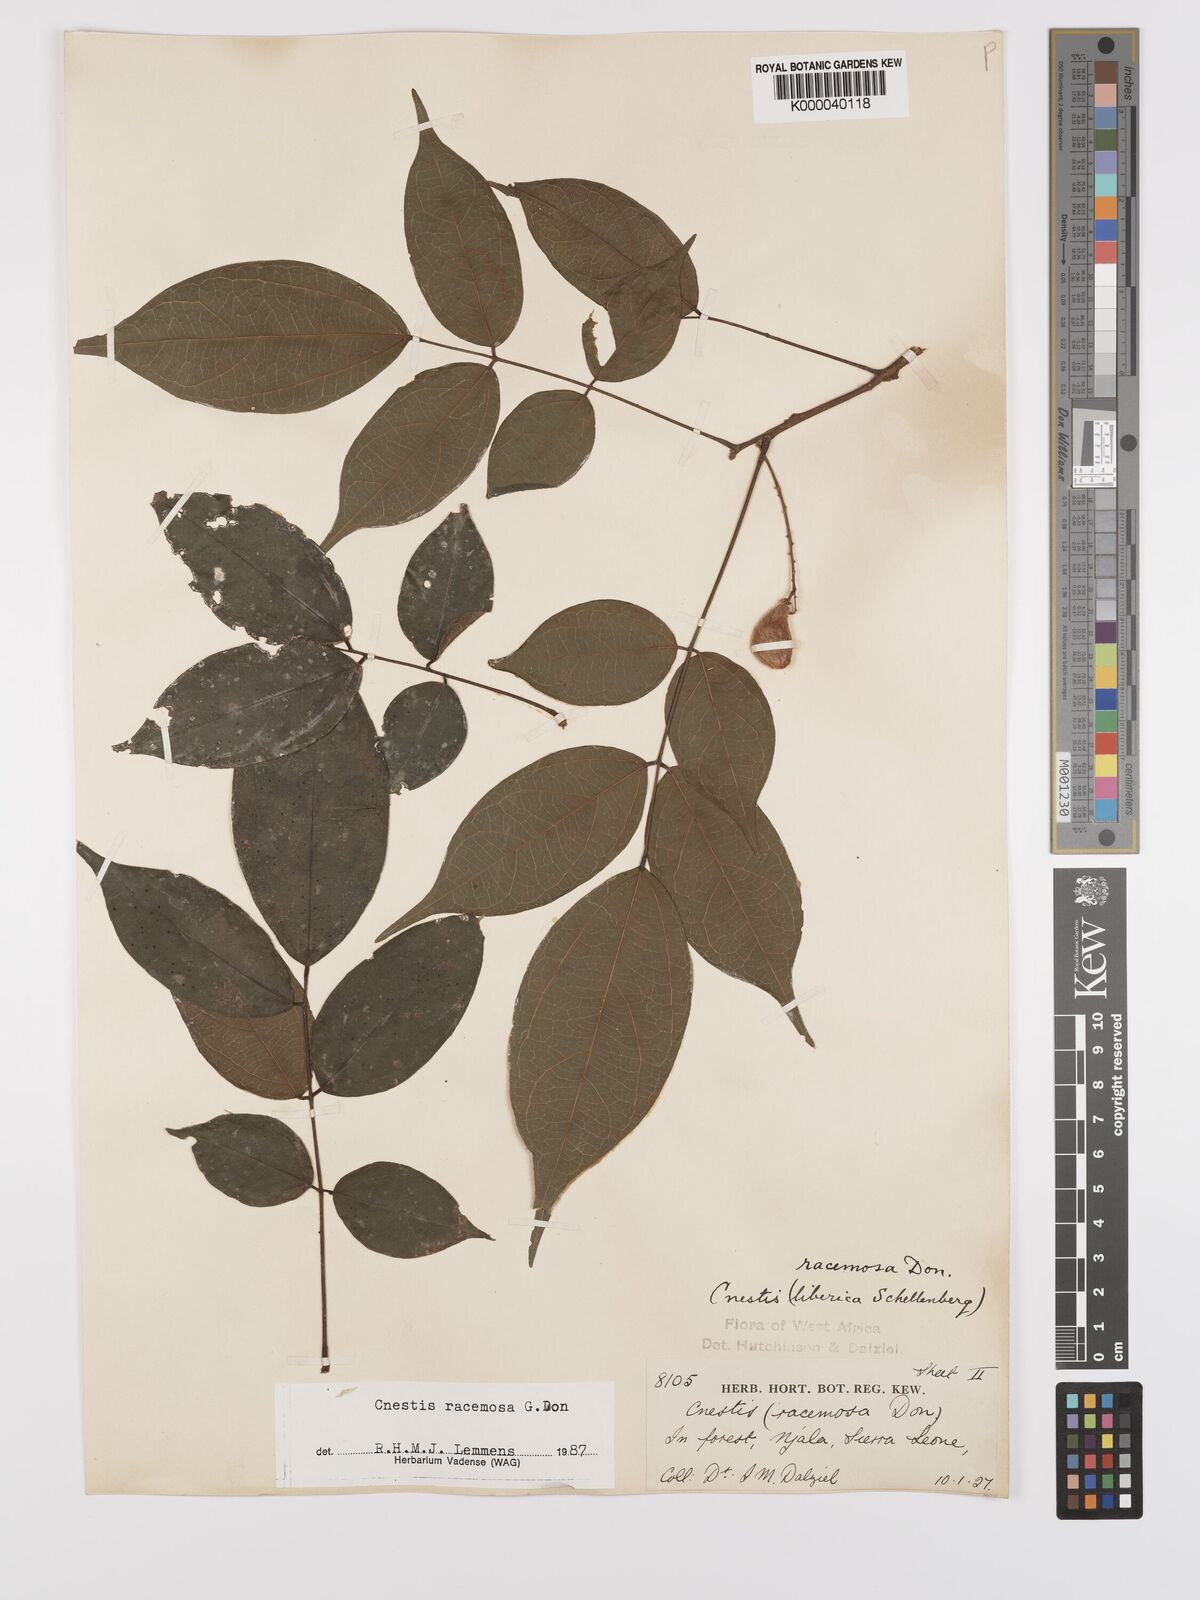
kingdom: Plantae
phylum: Tracheophyta
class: Magnoliopsida
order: Oxalidales
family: Connaraceae
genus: Cnestis
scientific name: Cnestis racemosa
